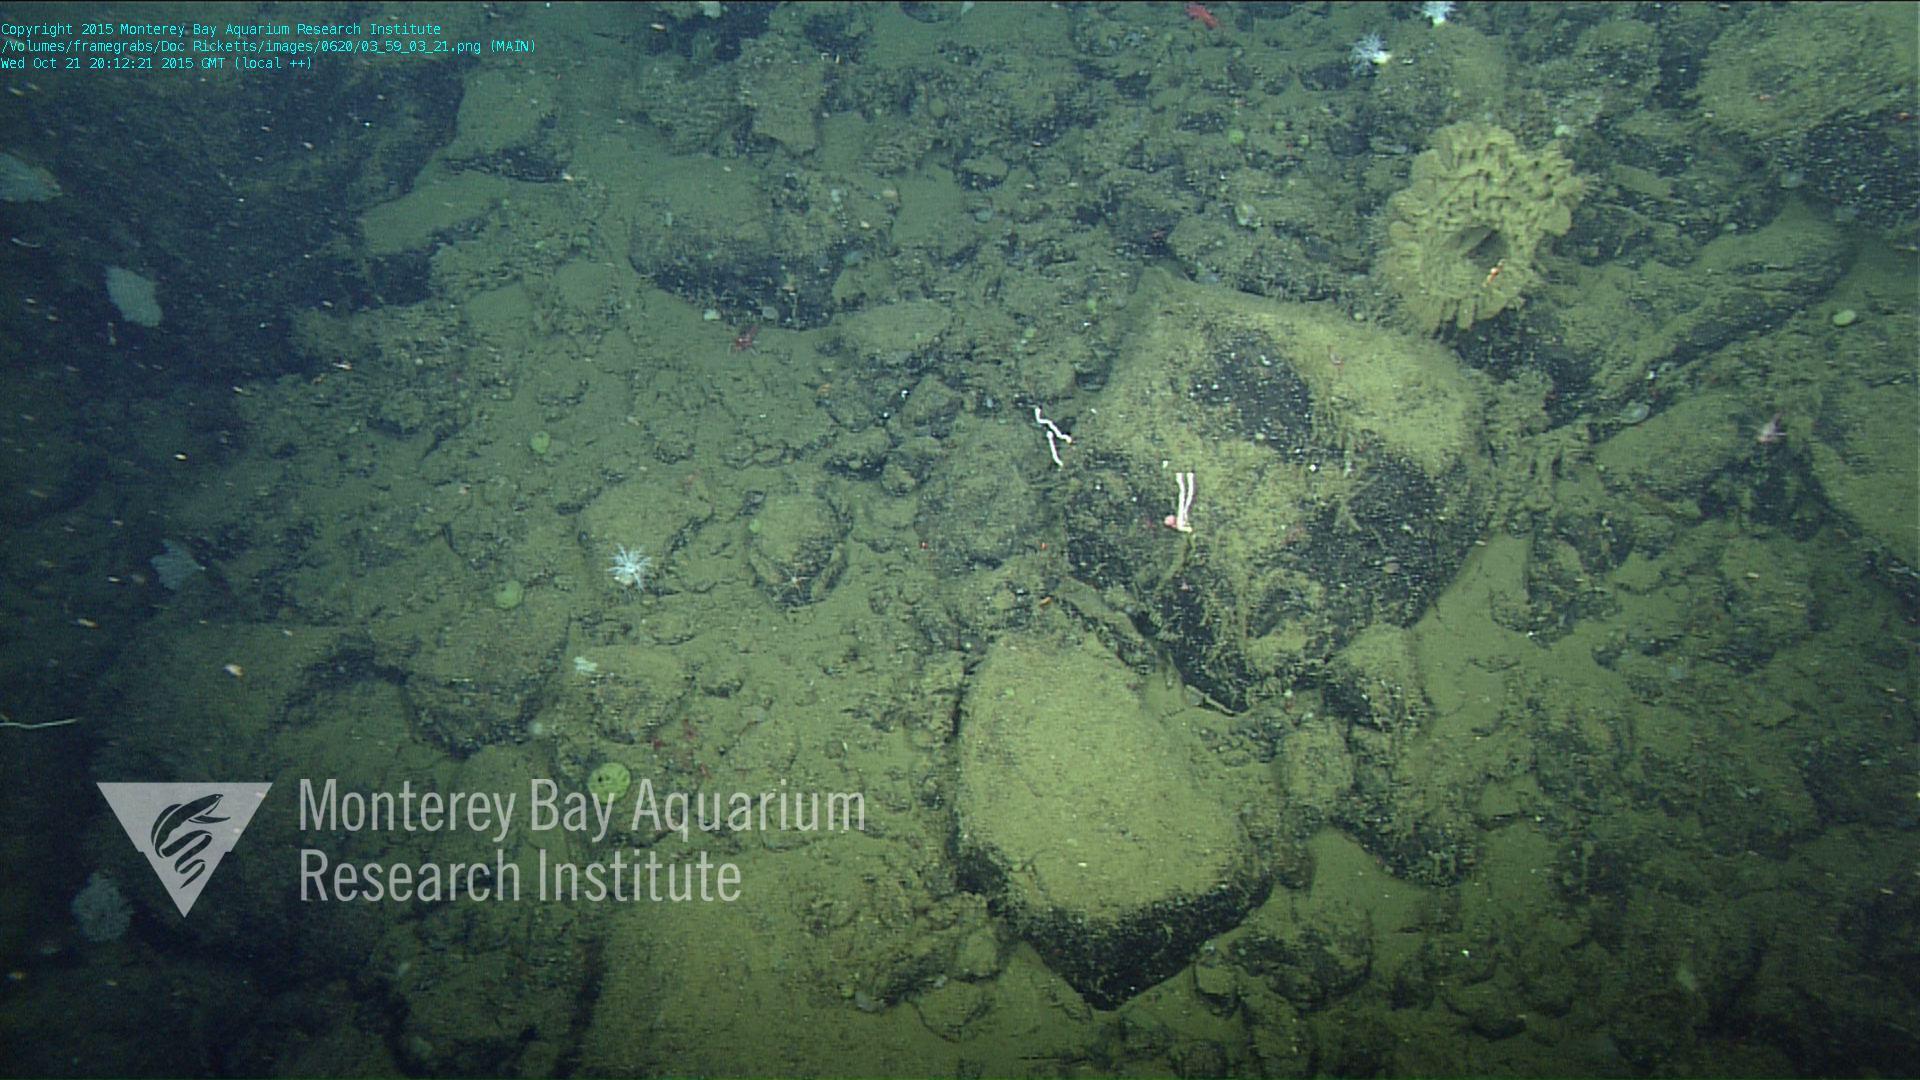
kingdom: Animalia
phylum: Cnidaria
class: Anthozoa
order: Scleralcyonacea
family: Coralliidae
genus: Sibogagorgia
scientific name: Sibogagorgia cauliflora
